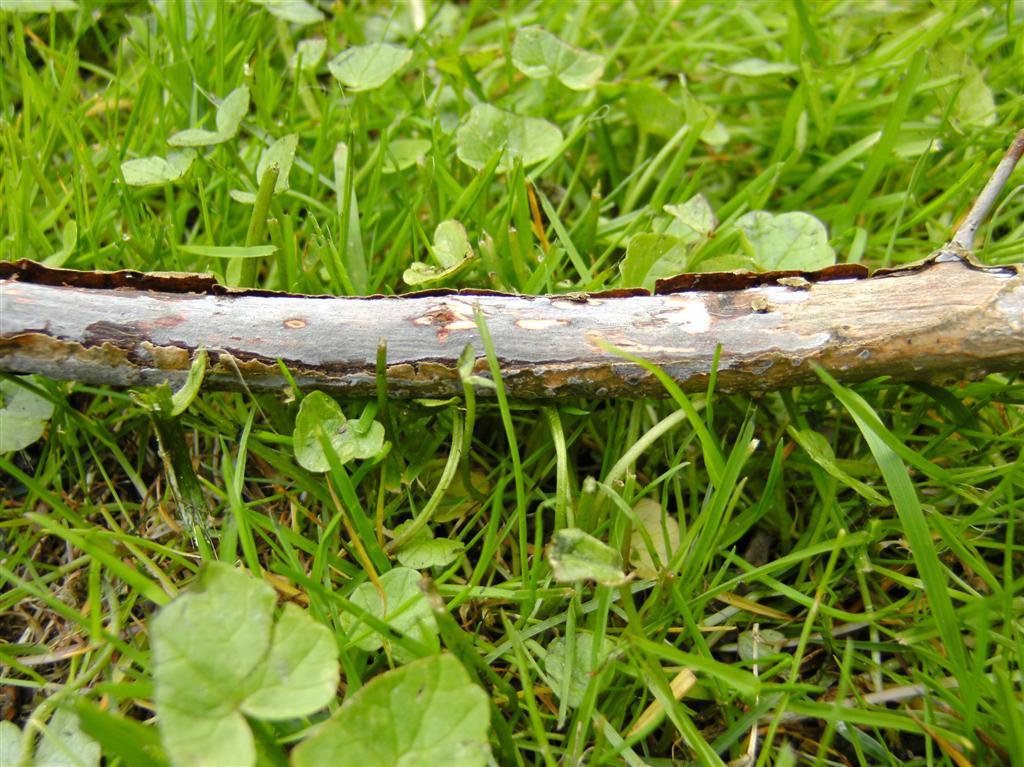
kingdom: Fungi
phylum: Basidiomycota
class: Agaricomycetes
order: Russulales
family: Peniophoraceae
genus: Peniophora
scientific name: Peniophora cinerea
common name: grå voksskind
